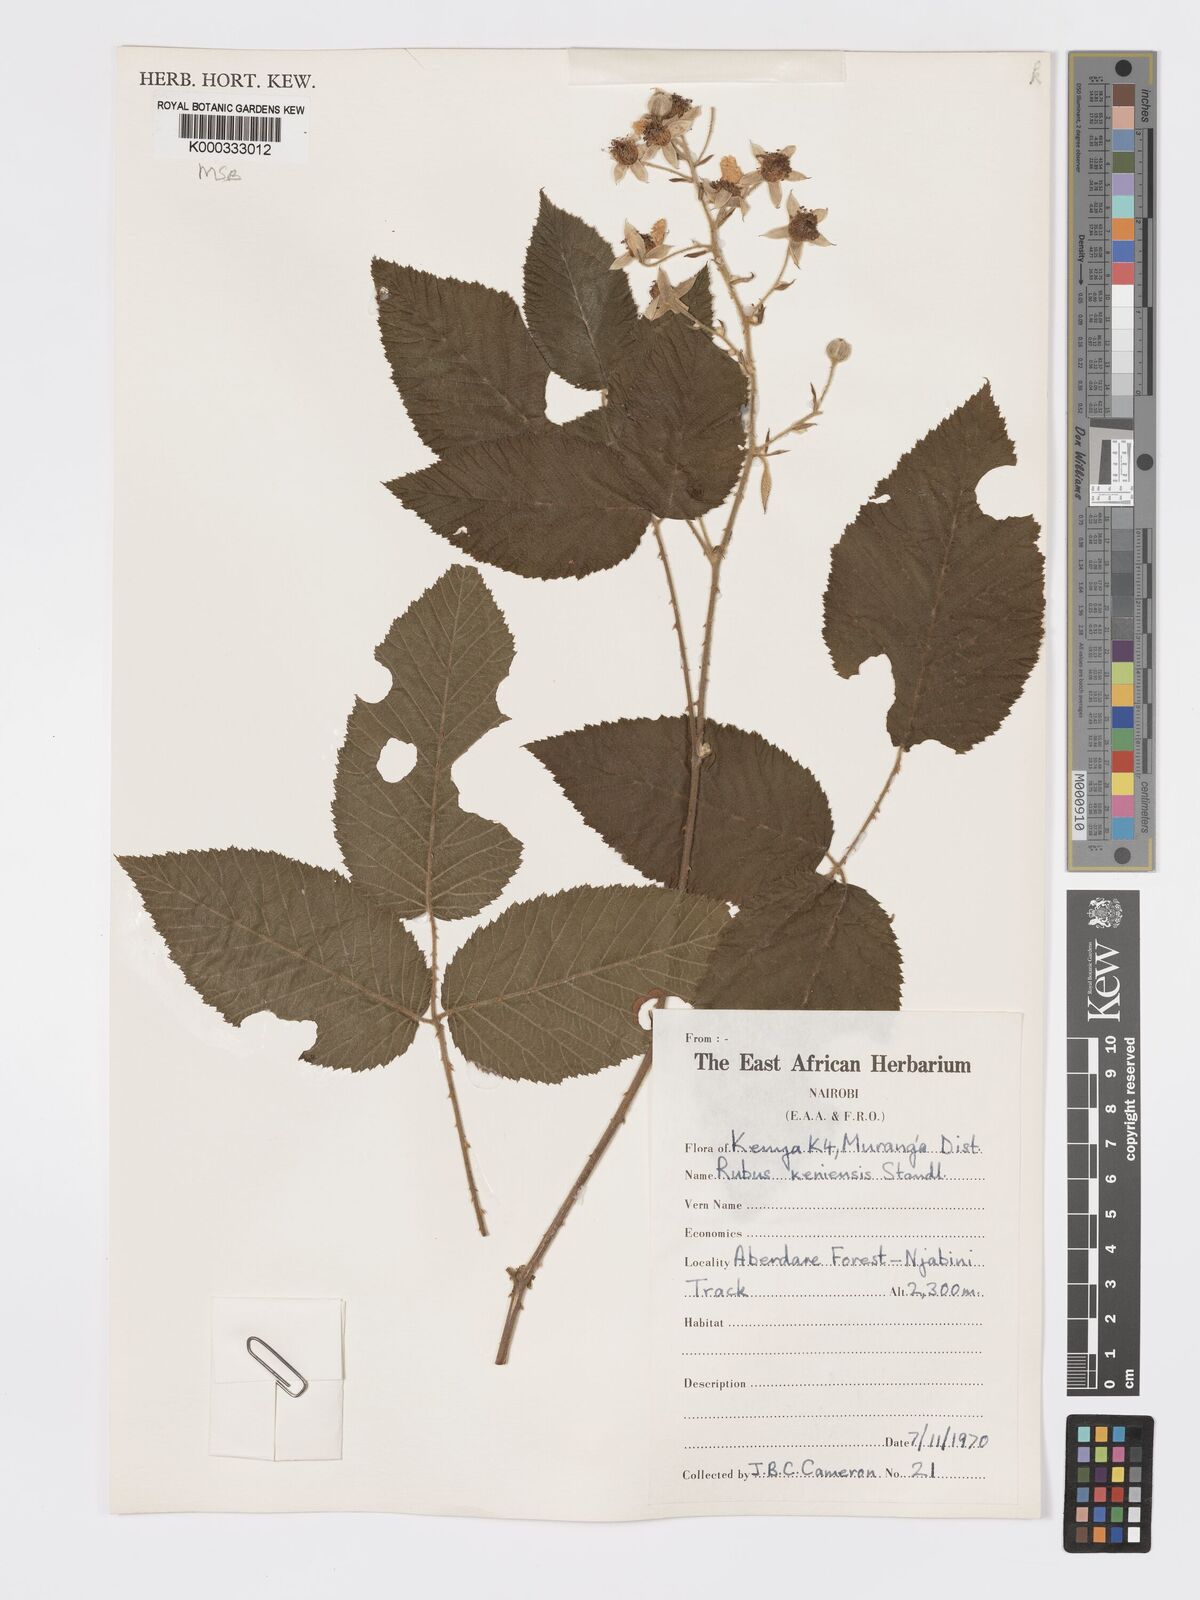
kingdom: Plantae
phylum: Tracheophyta
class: Magnoliopsida
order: Rosales
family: Rosaceae
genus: Rubus
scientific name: Rubus keniensis
